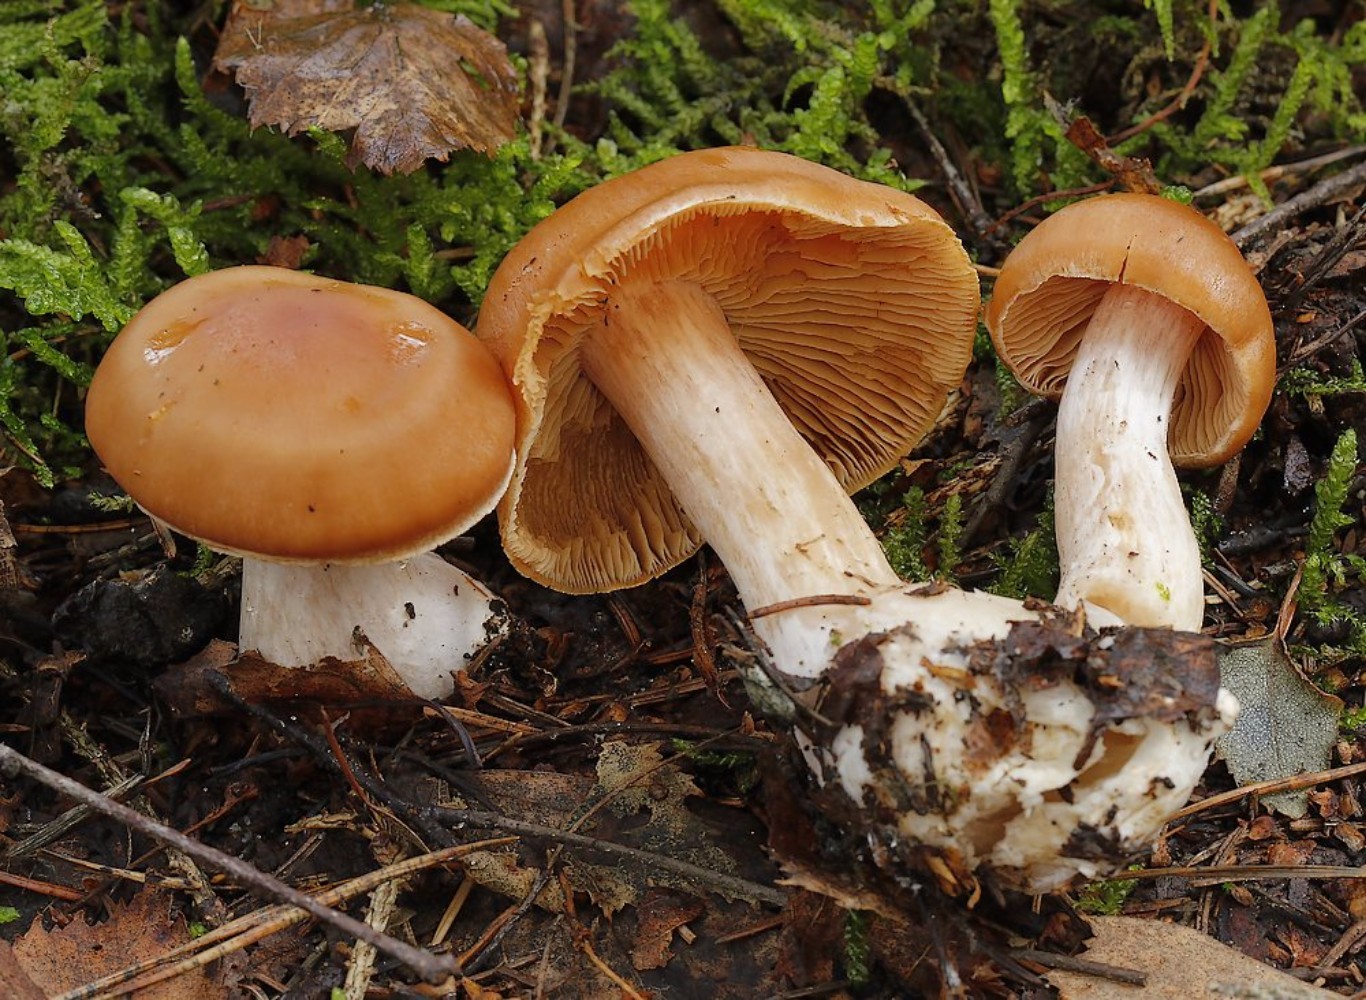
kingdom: Fungi
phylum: Basidiomycota
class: Agaricomycetes
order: Agaricales
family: Cortinariaceae
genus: Cortinarius
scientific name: Cortinarius
